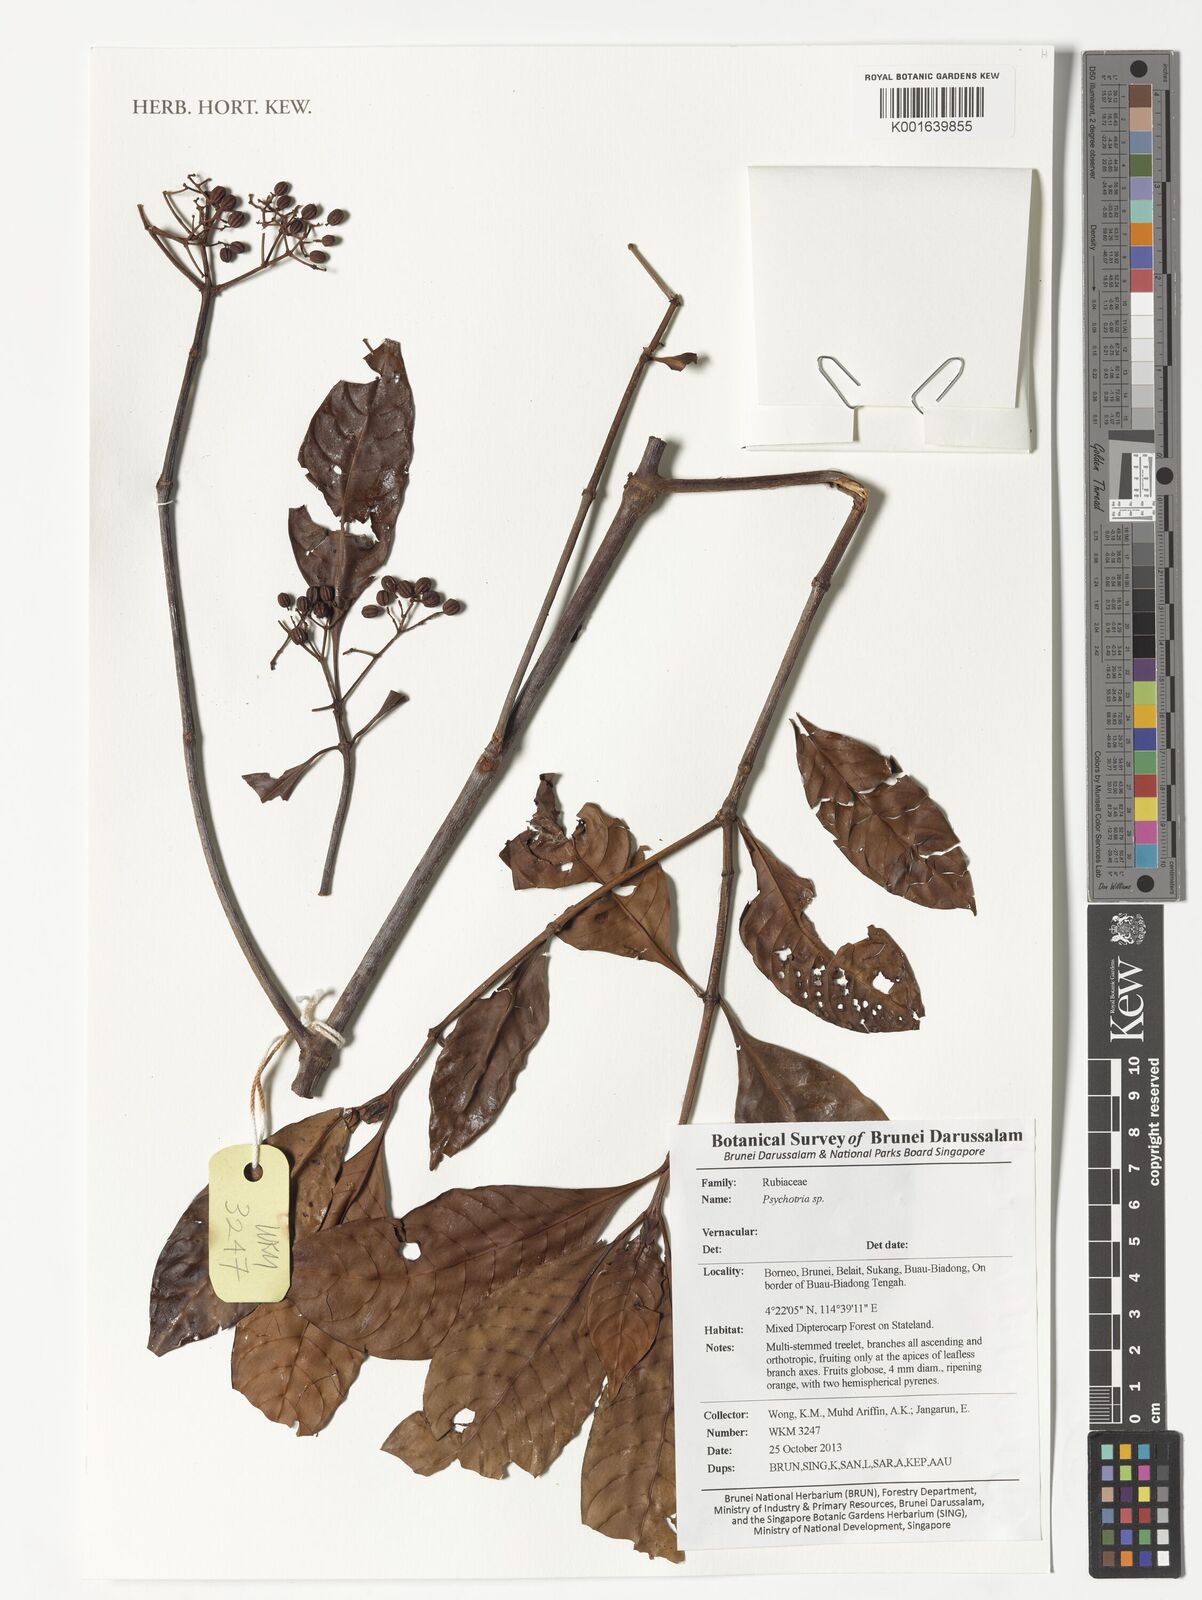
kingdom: Plantae
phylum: Tracheophyta
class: Magnoliopsida
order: Gentianales
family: Rubiaceae
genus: Psychotria
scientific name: Psychotria
